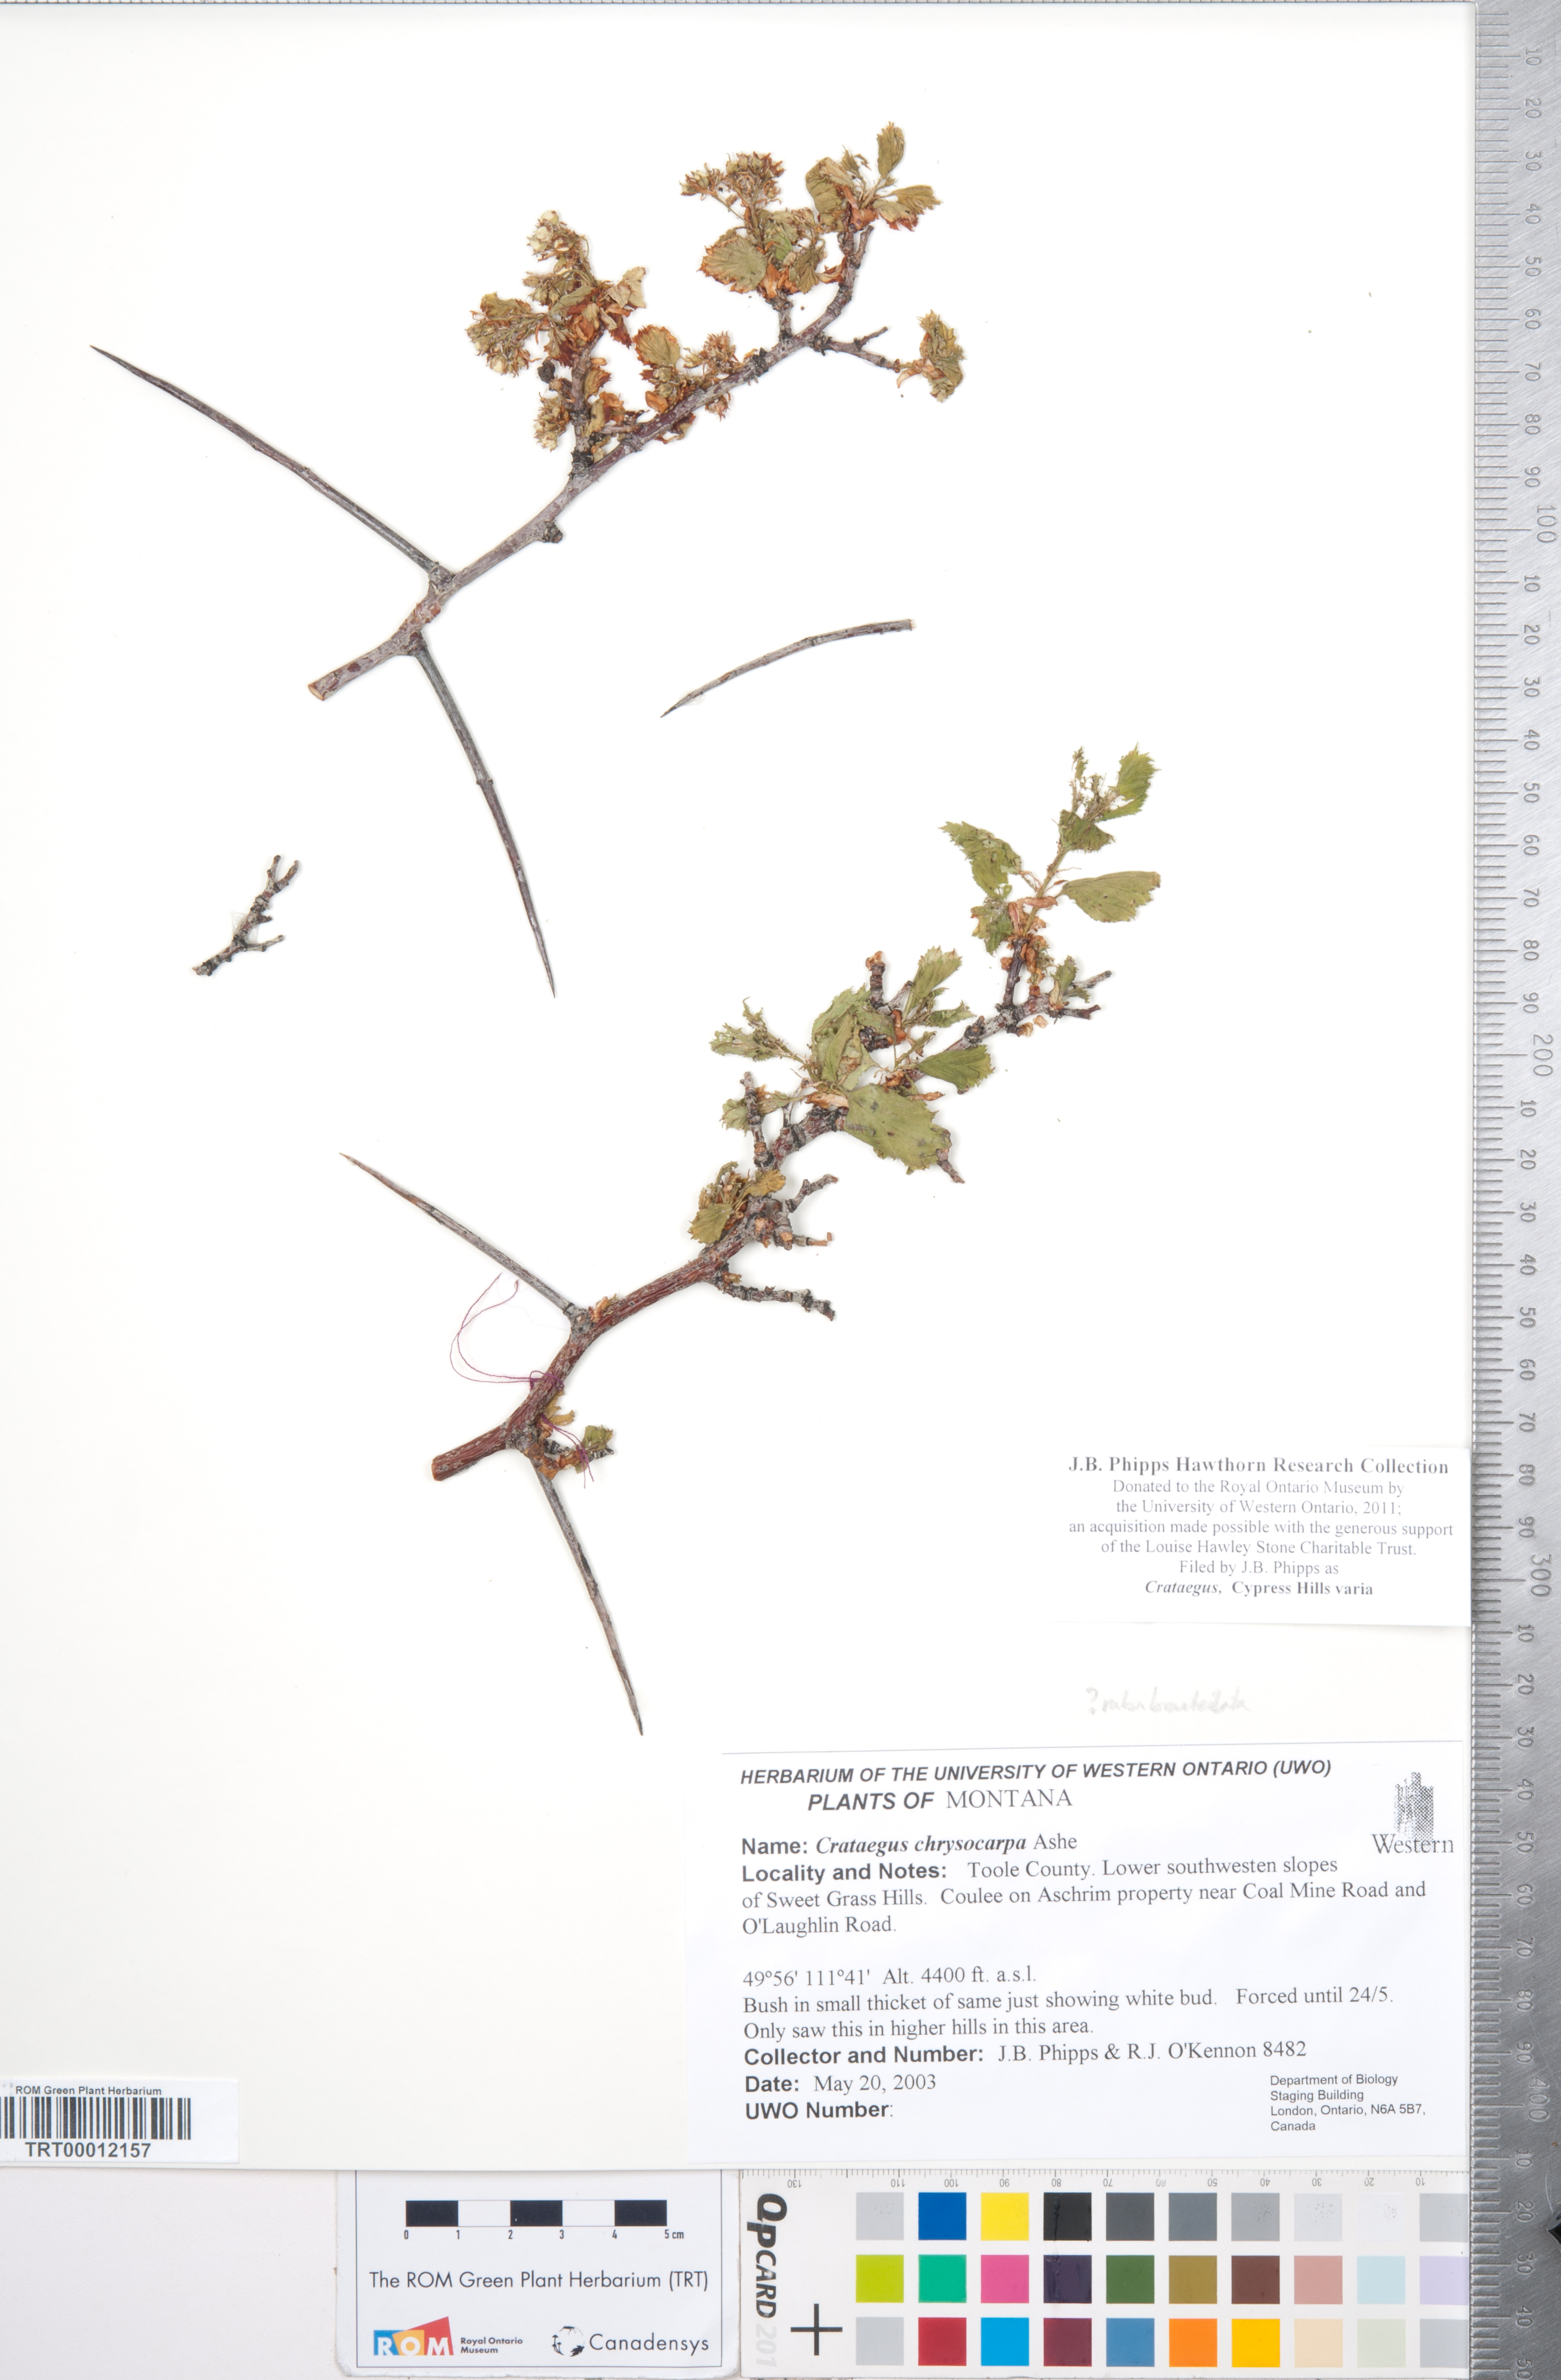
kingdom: Plantae
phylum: Tracheophyta
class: Magnoliopsida
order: Rosales
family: Rosaceae
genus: Crataegus
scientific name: Crataegus
